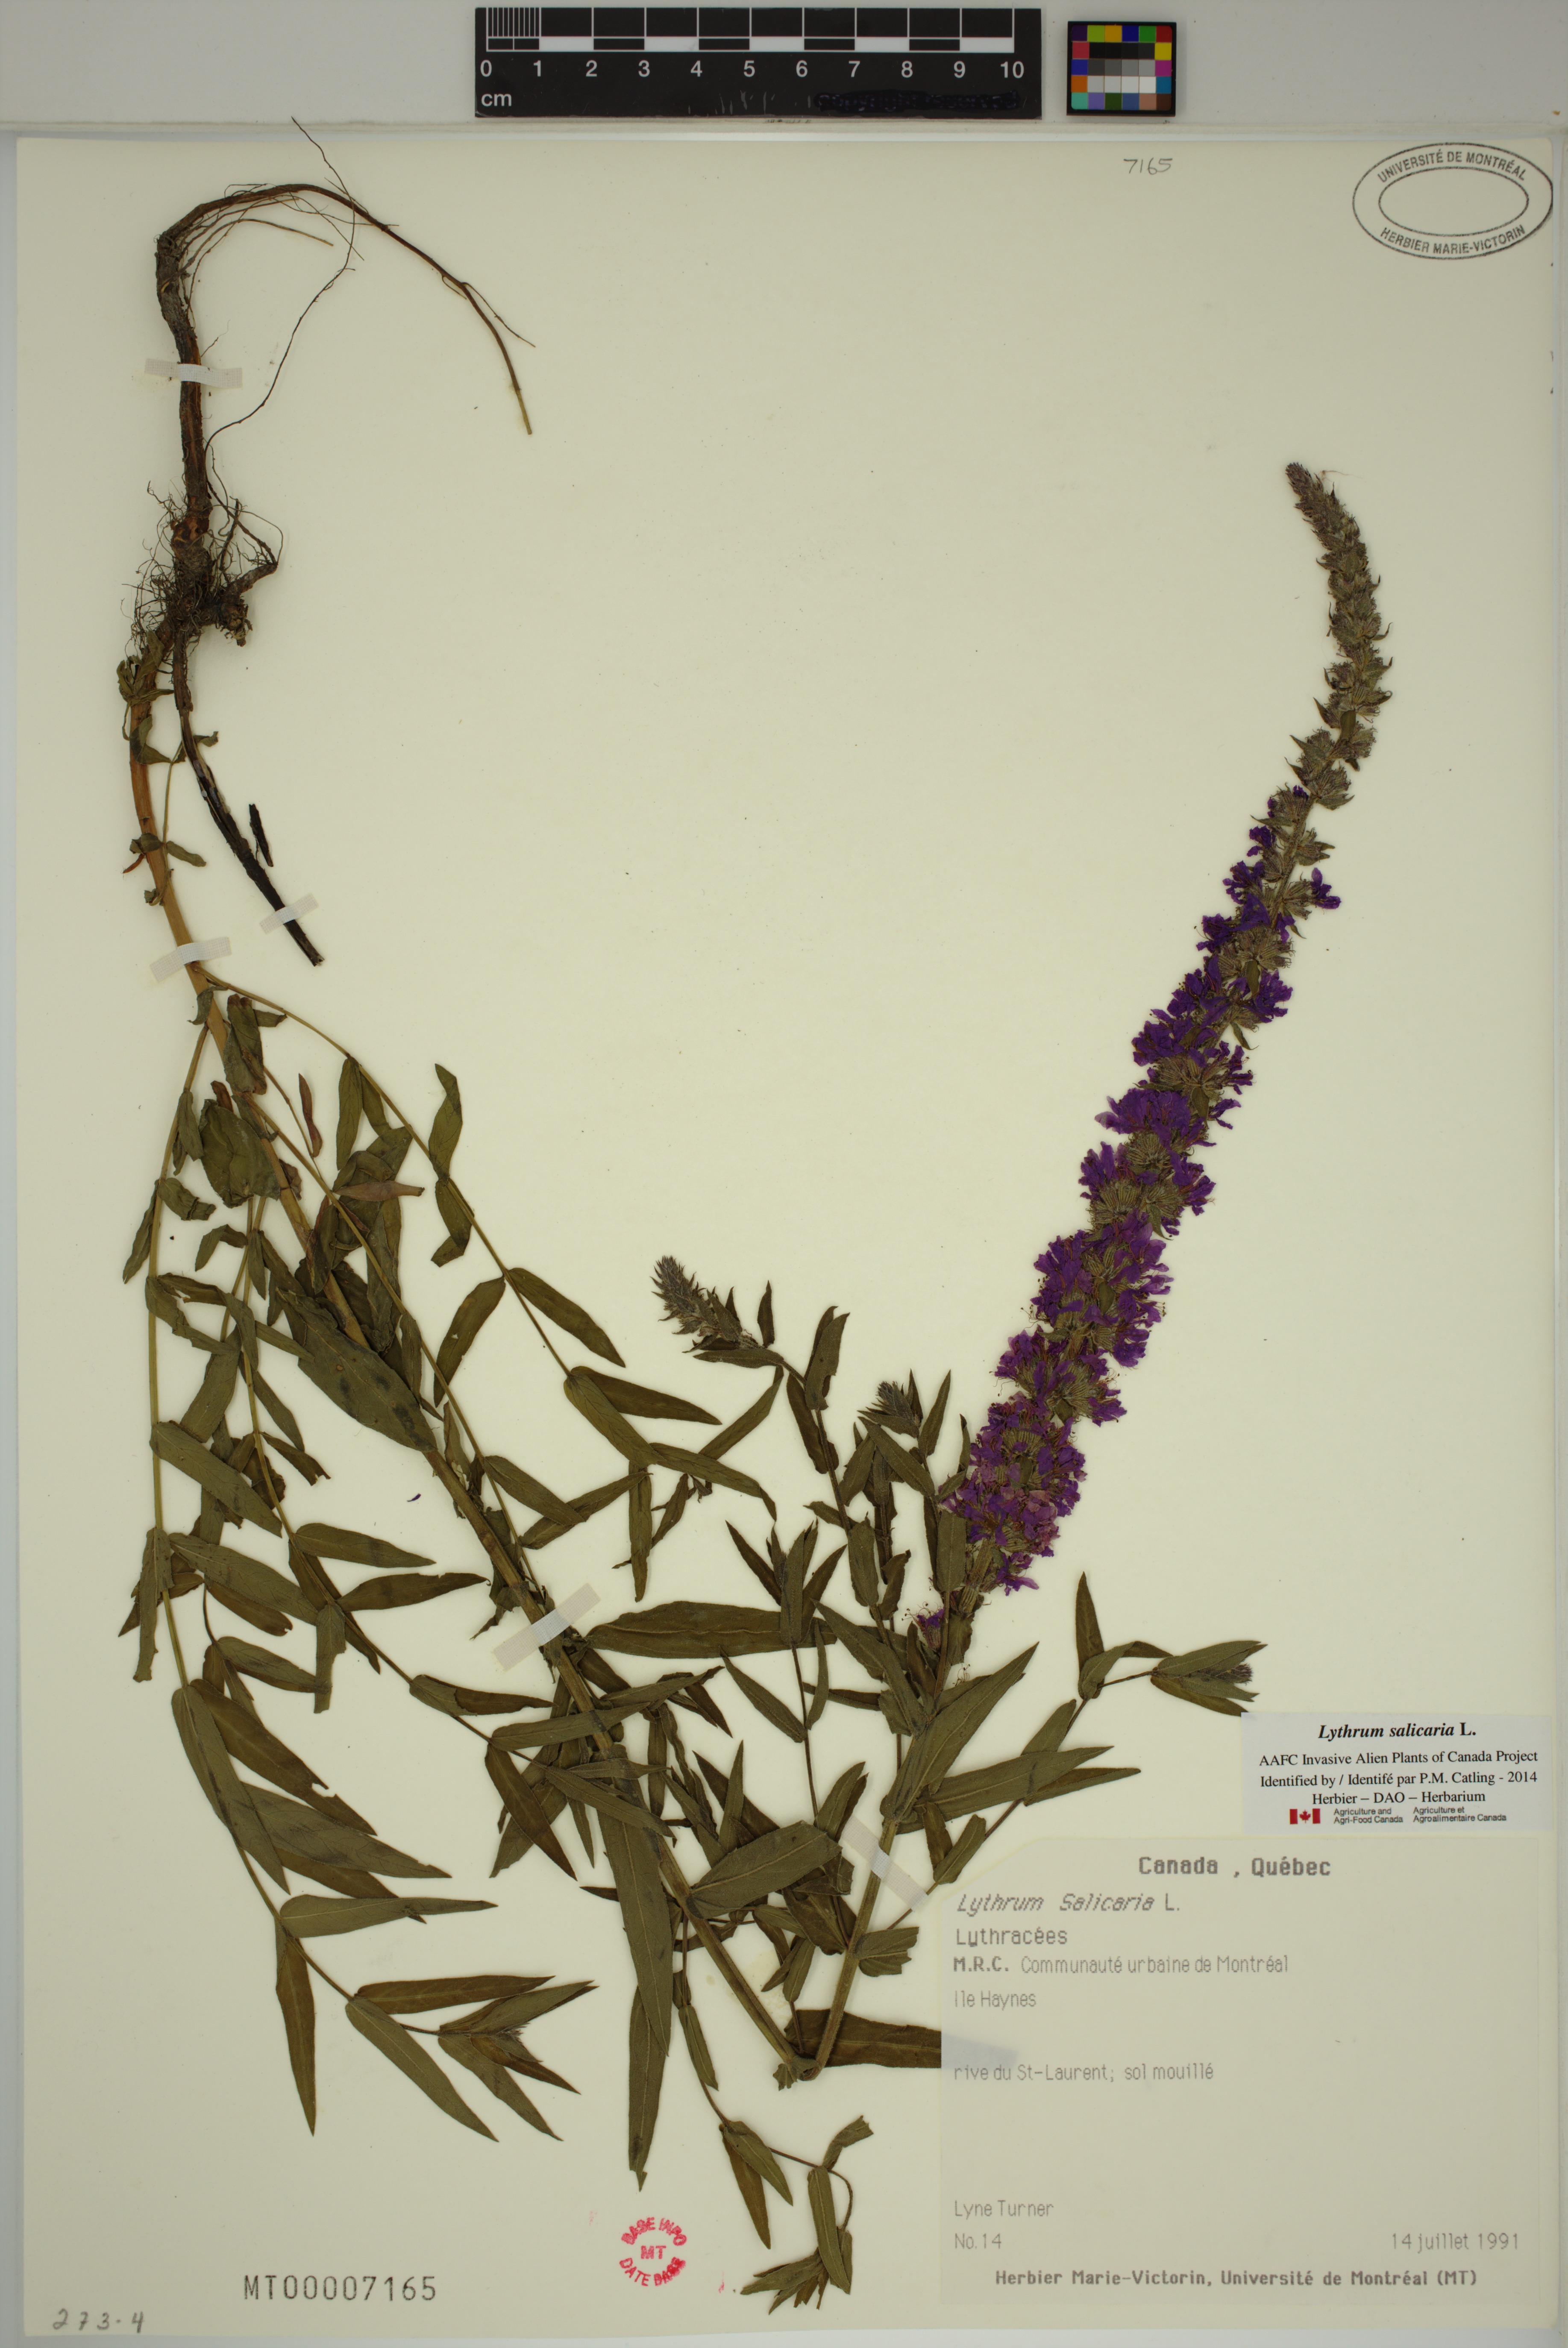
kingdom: Plantae
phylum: Tracheophyta
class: Magnoliopsida
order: Myrtales
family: Lythraceae
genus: Lythrum
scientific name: Lythrum salicaria
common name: Purple loosestrife
